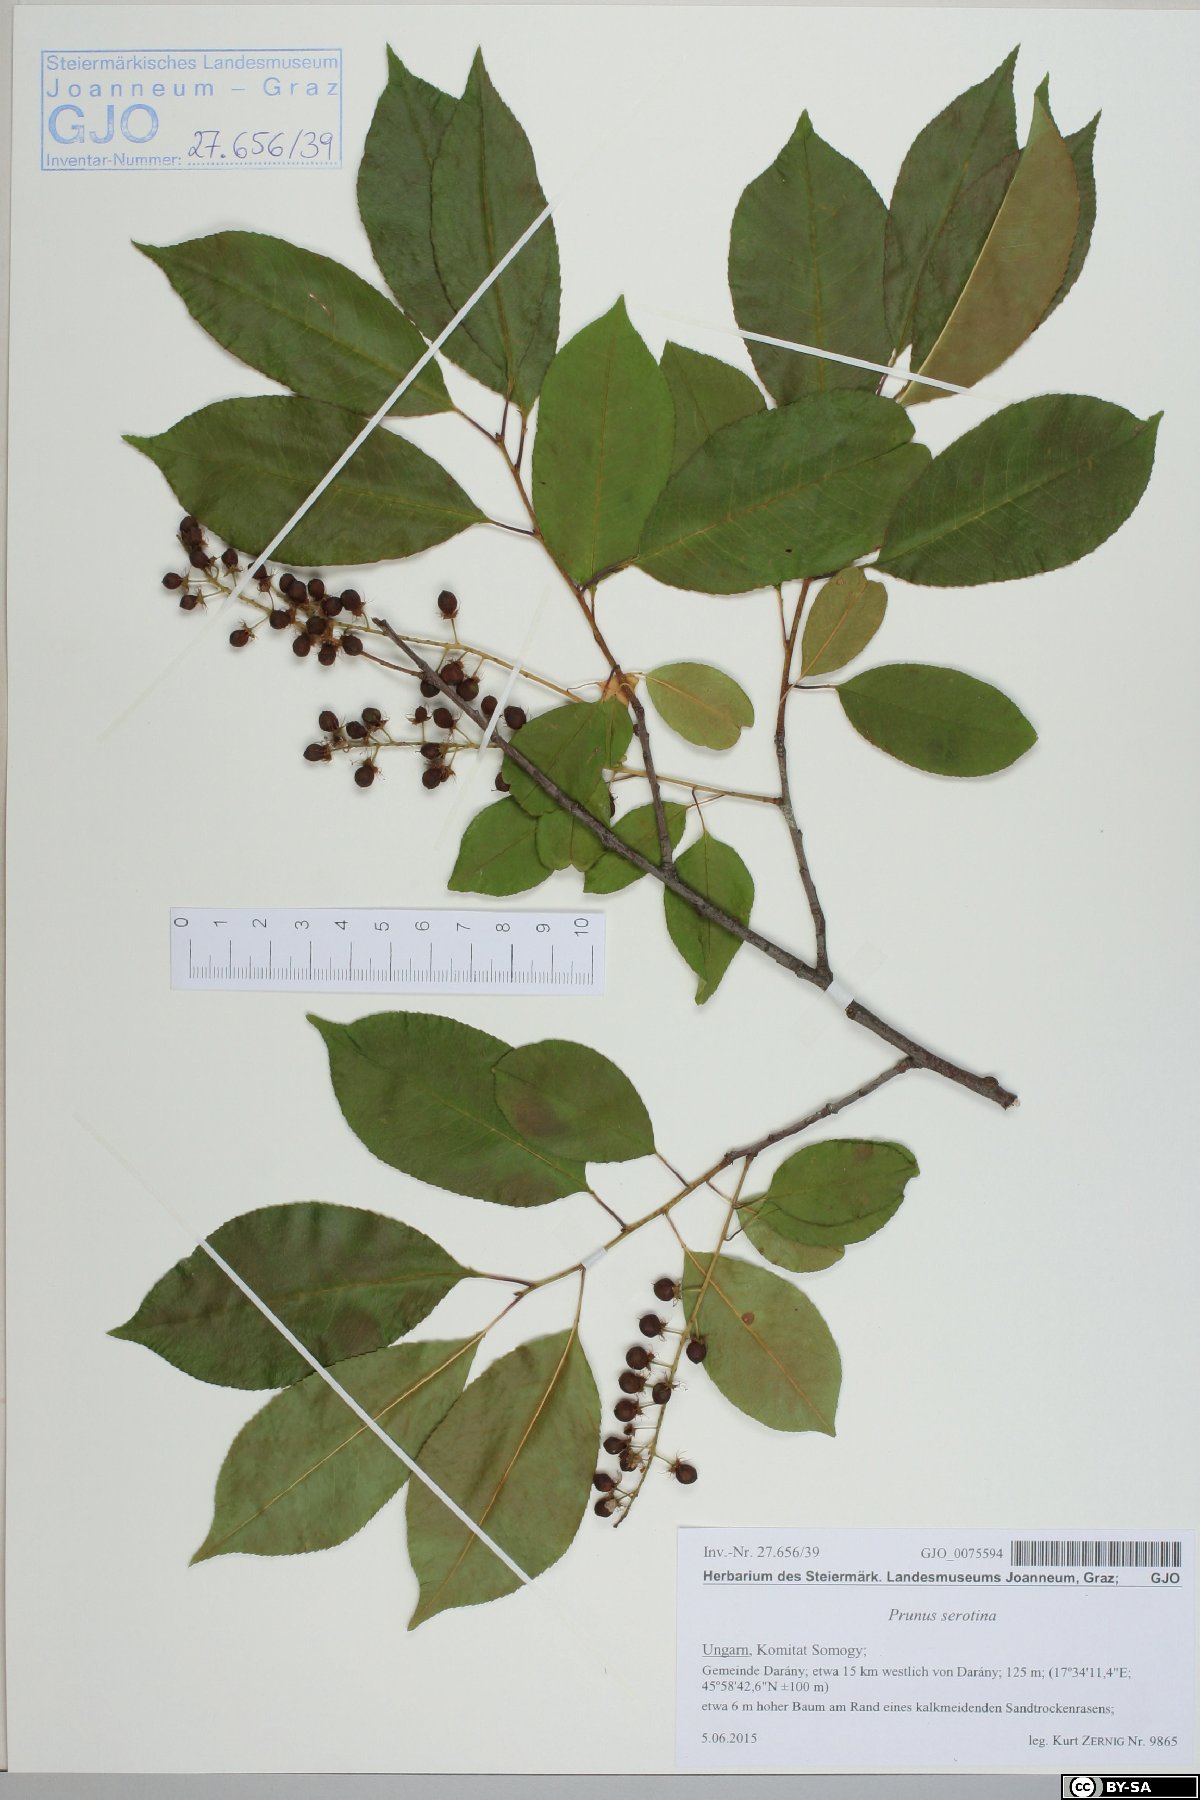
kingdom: Plantae
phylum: Tracheophyta
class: Magnoliopsida
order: Rosales
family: Rosaceae
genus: Prunus
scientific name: Prunus serotina
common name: Black cherry
